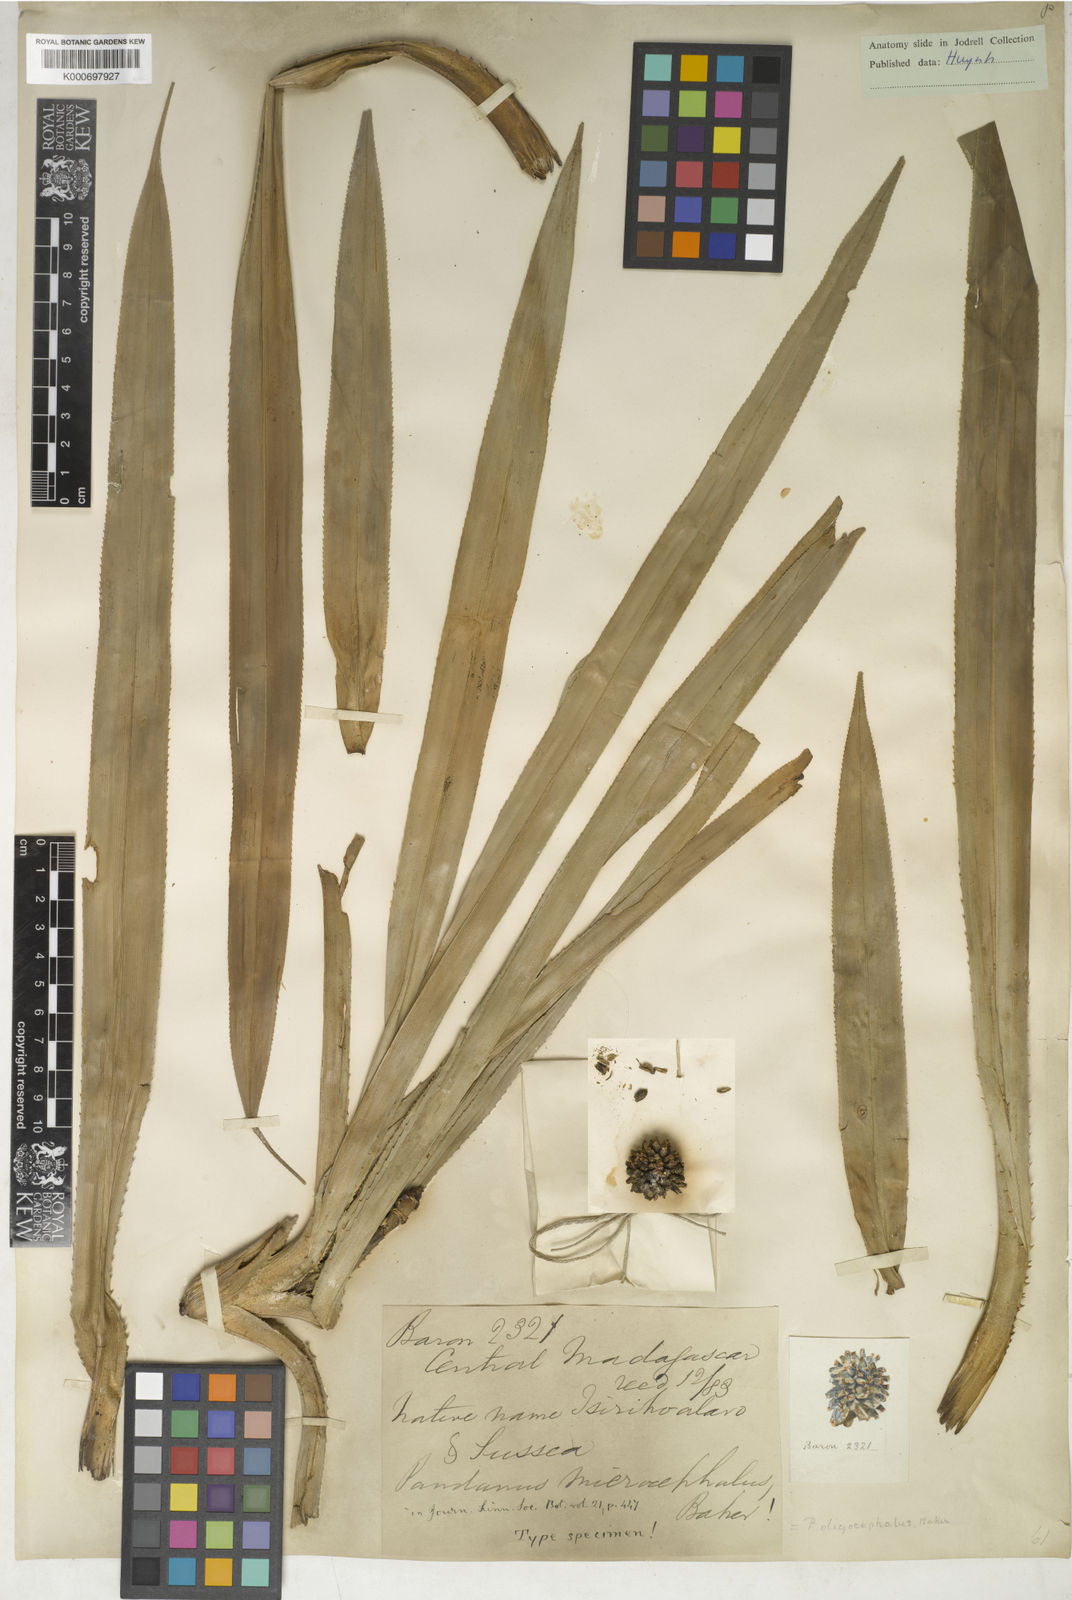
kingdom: Plantae
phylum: Tracheophyta
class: Liliopsida
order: Pandanales
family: Pandanaceae
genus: Pandanus
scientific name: Pandanus microcephalus
